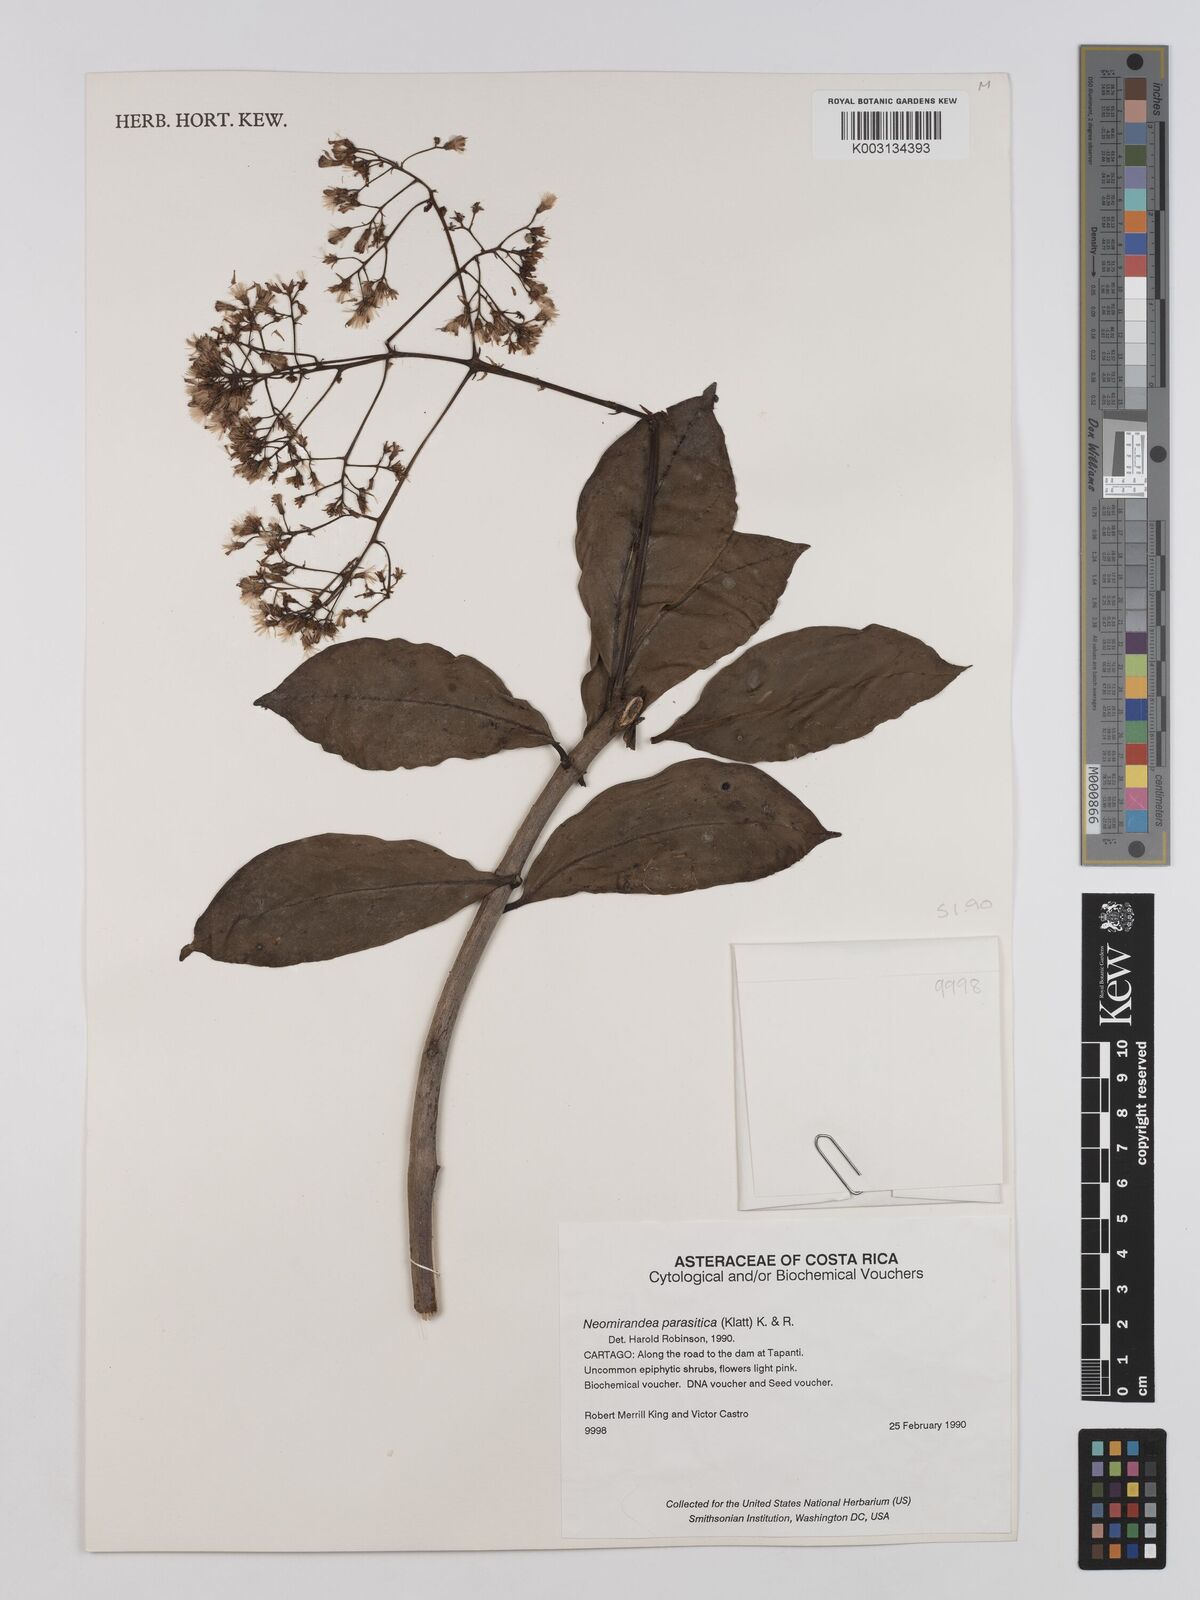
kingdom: Plantae
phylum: Tracheophyta
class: Magnoliopsida
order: Asterales
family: Asteraceae
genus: Neomirandea
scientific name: Neomirandea parasitica
